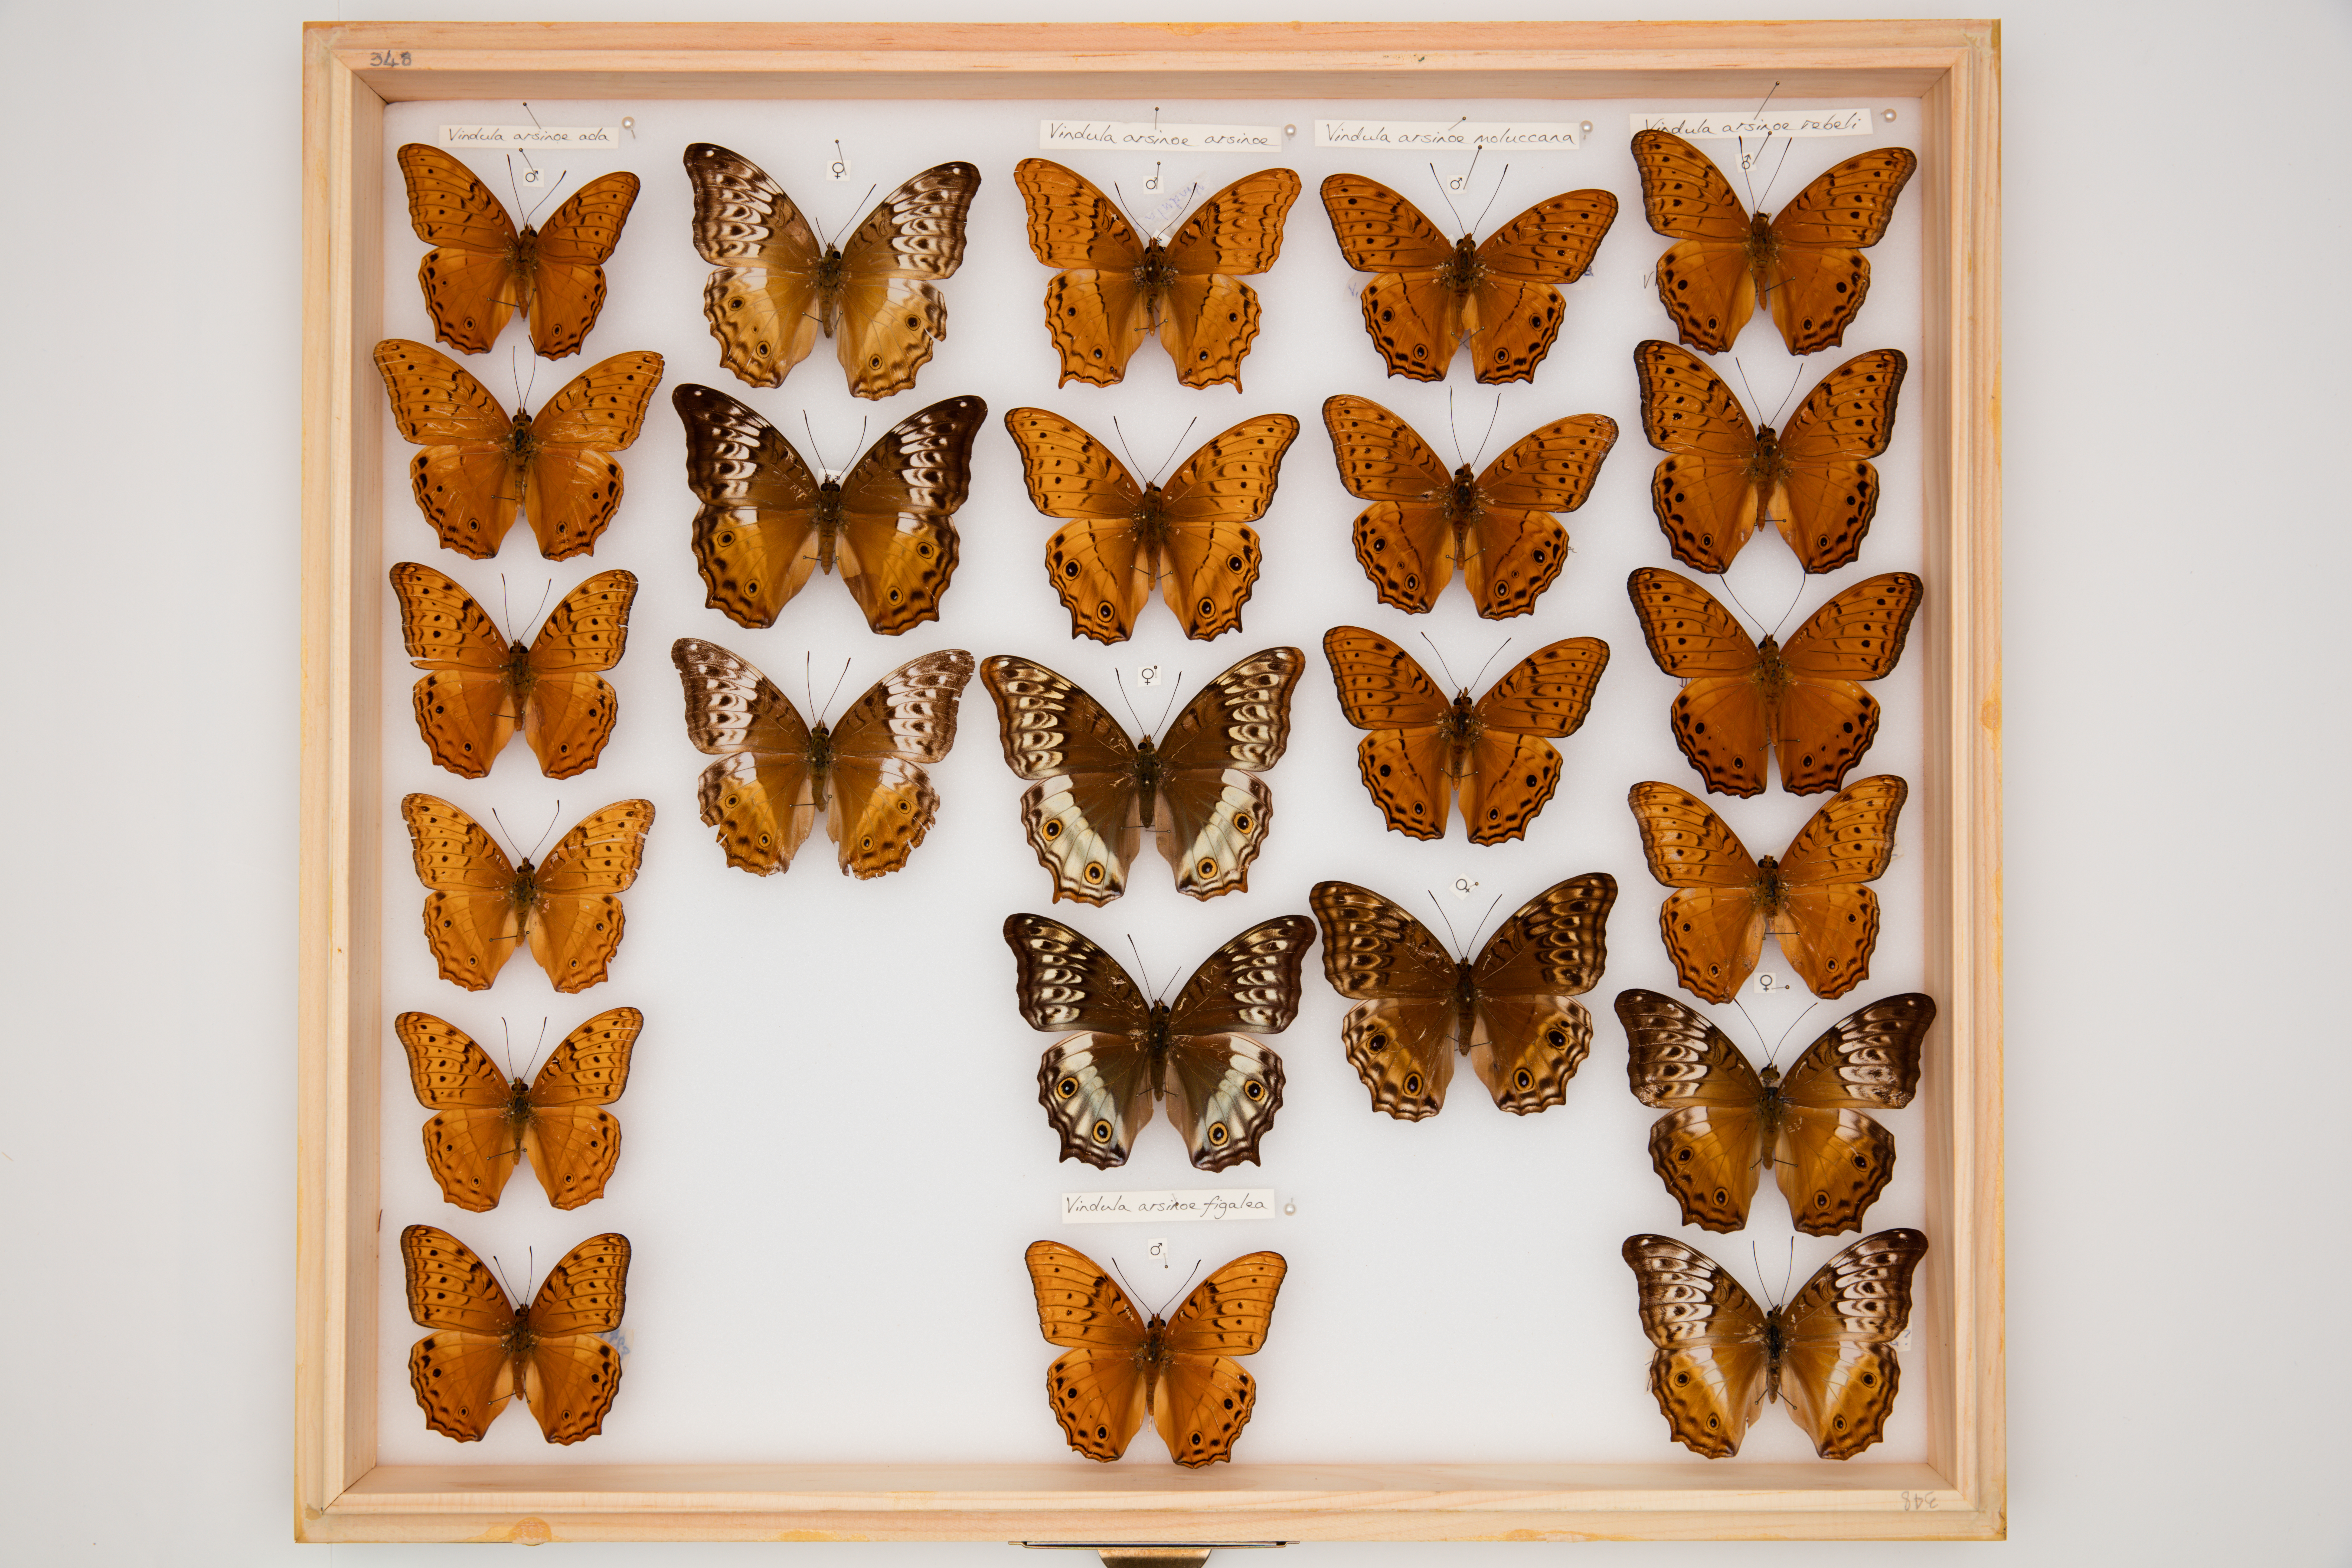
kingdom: Animalia
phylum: Arthropoda
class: Insecta
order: Lepidoptera
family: Nymphalidae
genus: Vindula
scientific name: Vindula arsinoe
